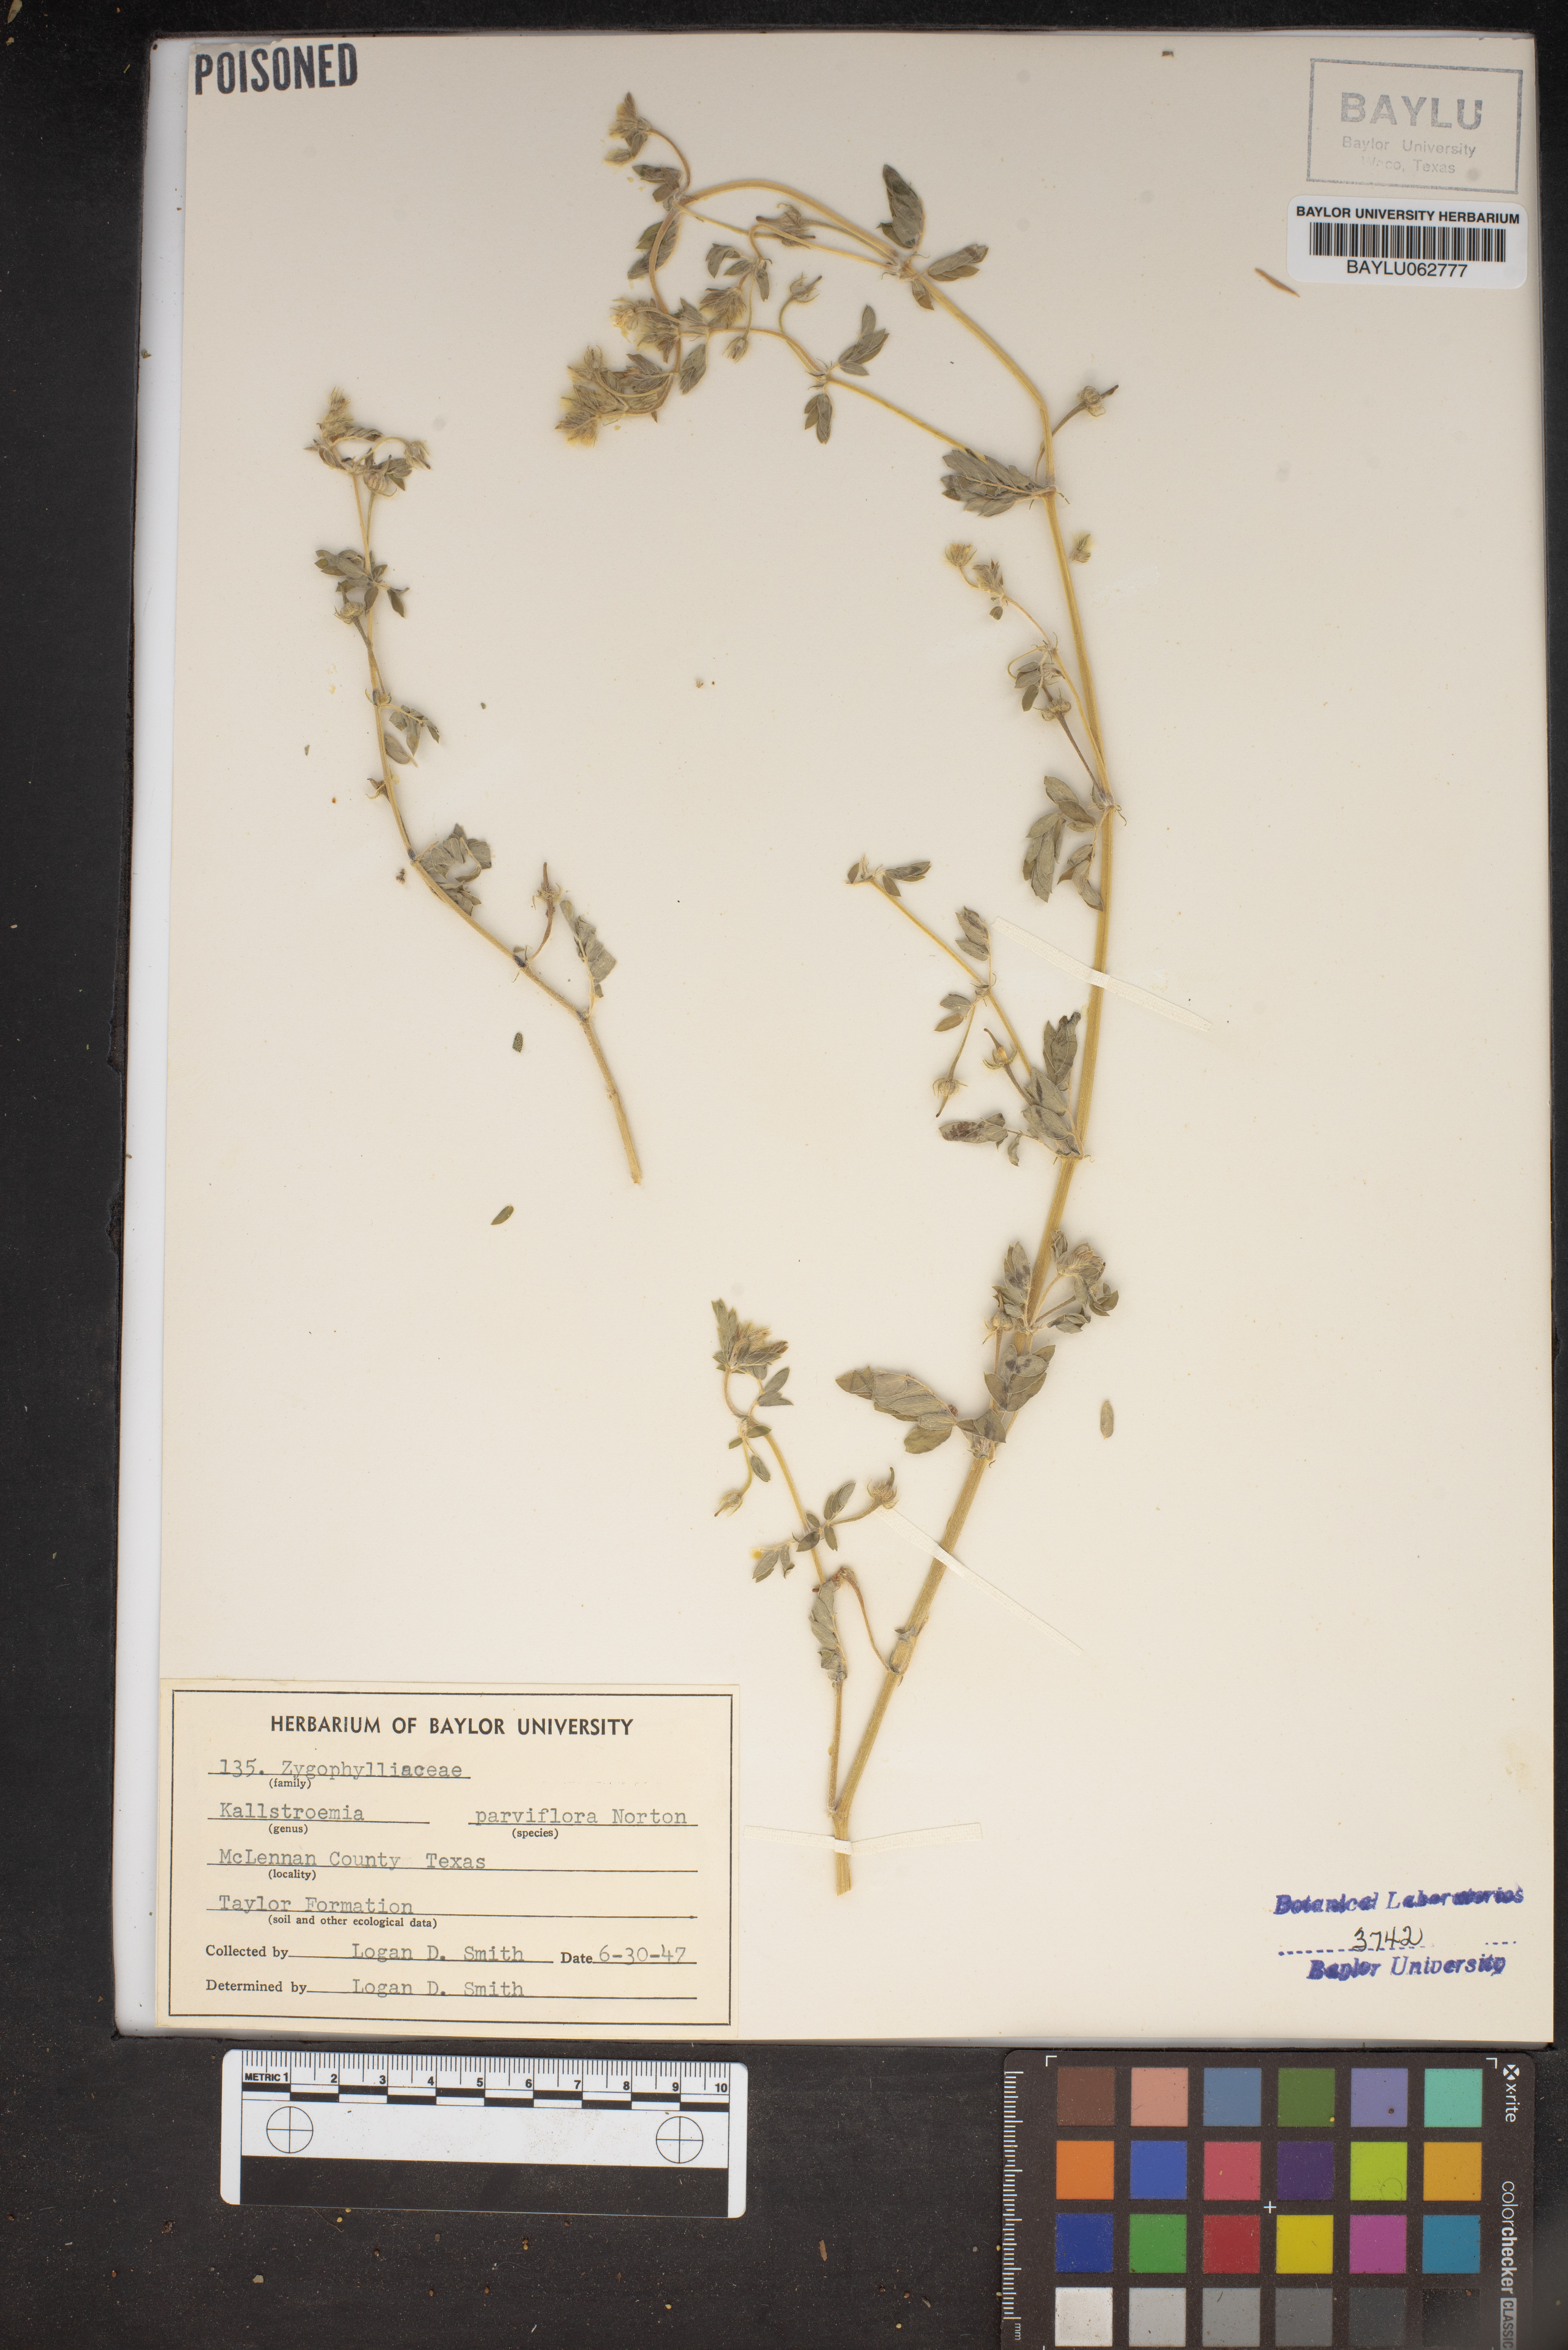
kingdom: Plantae
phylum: Tracheophyta
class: Magnoliopsida
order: Zygophyllales
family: Zygophyllaceae
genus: Kallstroemia
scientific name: Kallstroemia parviflora
